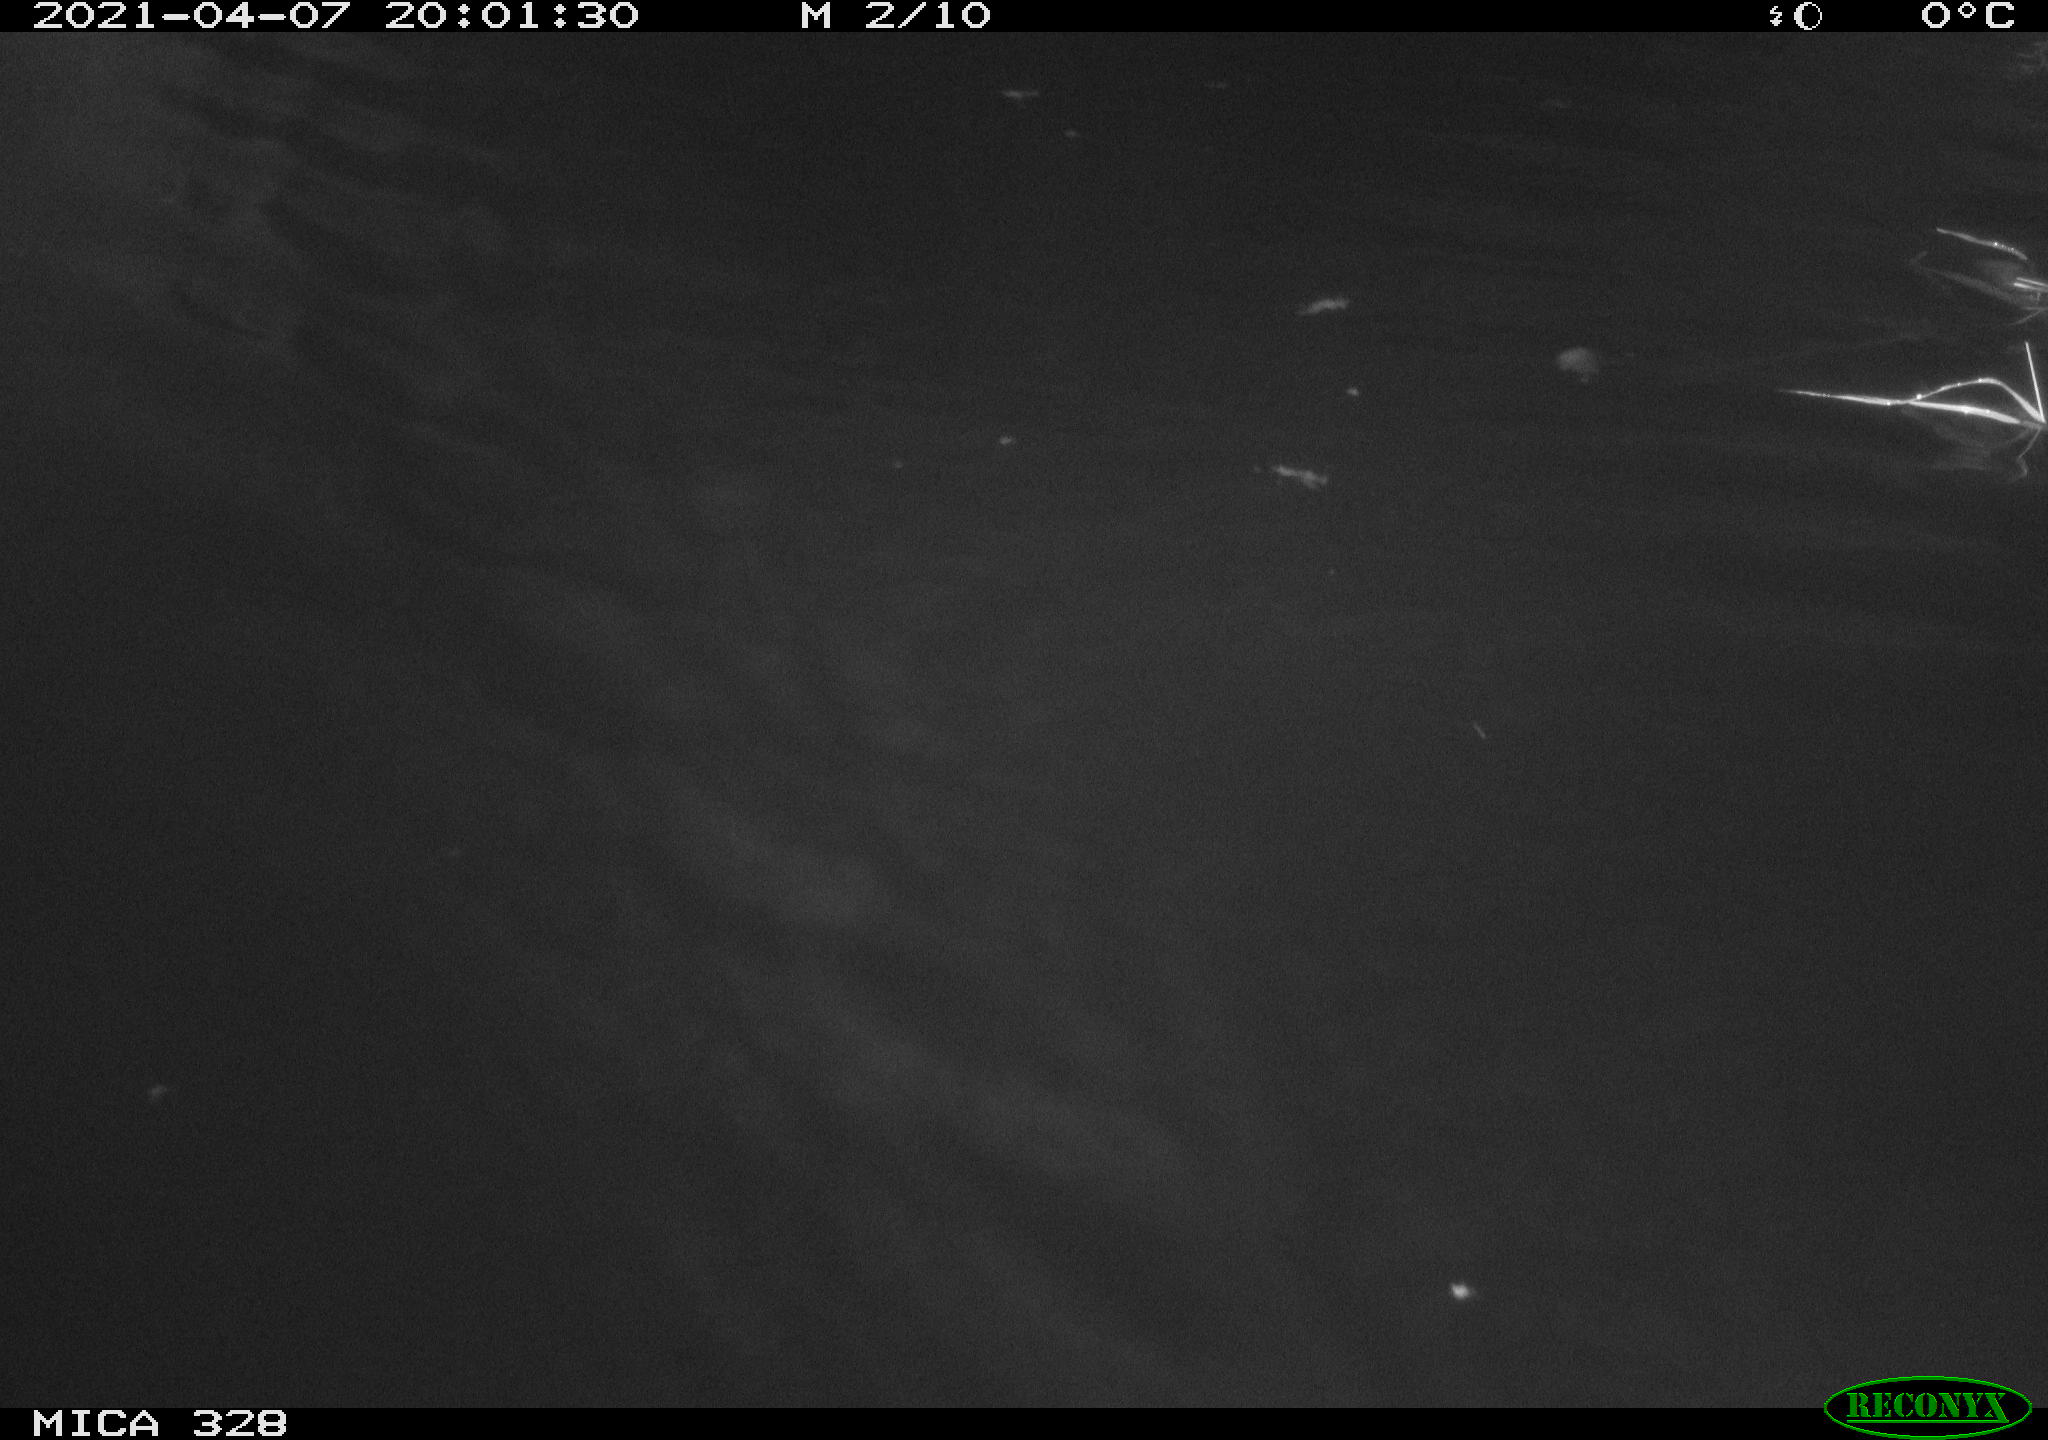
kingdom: Animalia
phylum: Chordata
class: Mammalia
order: Rodentia
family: Cricetidae
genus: Ondatra
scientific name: Ondatra zibethicus
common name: Muskrat
